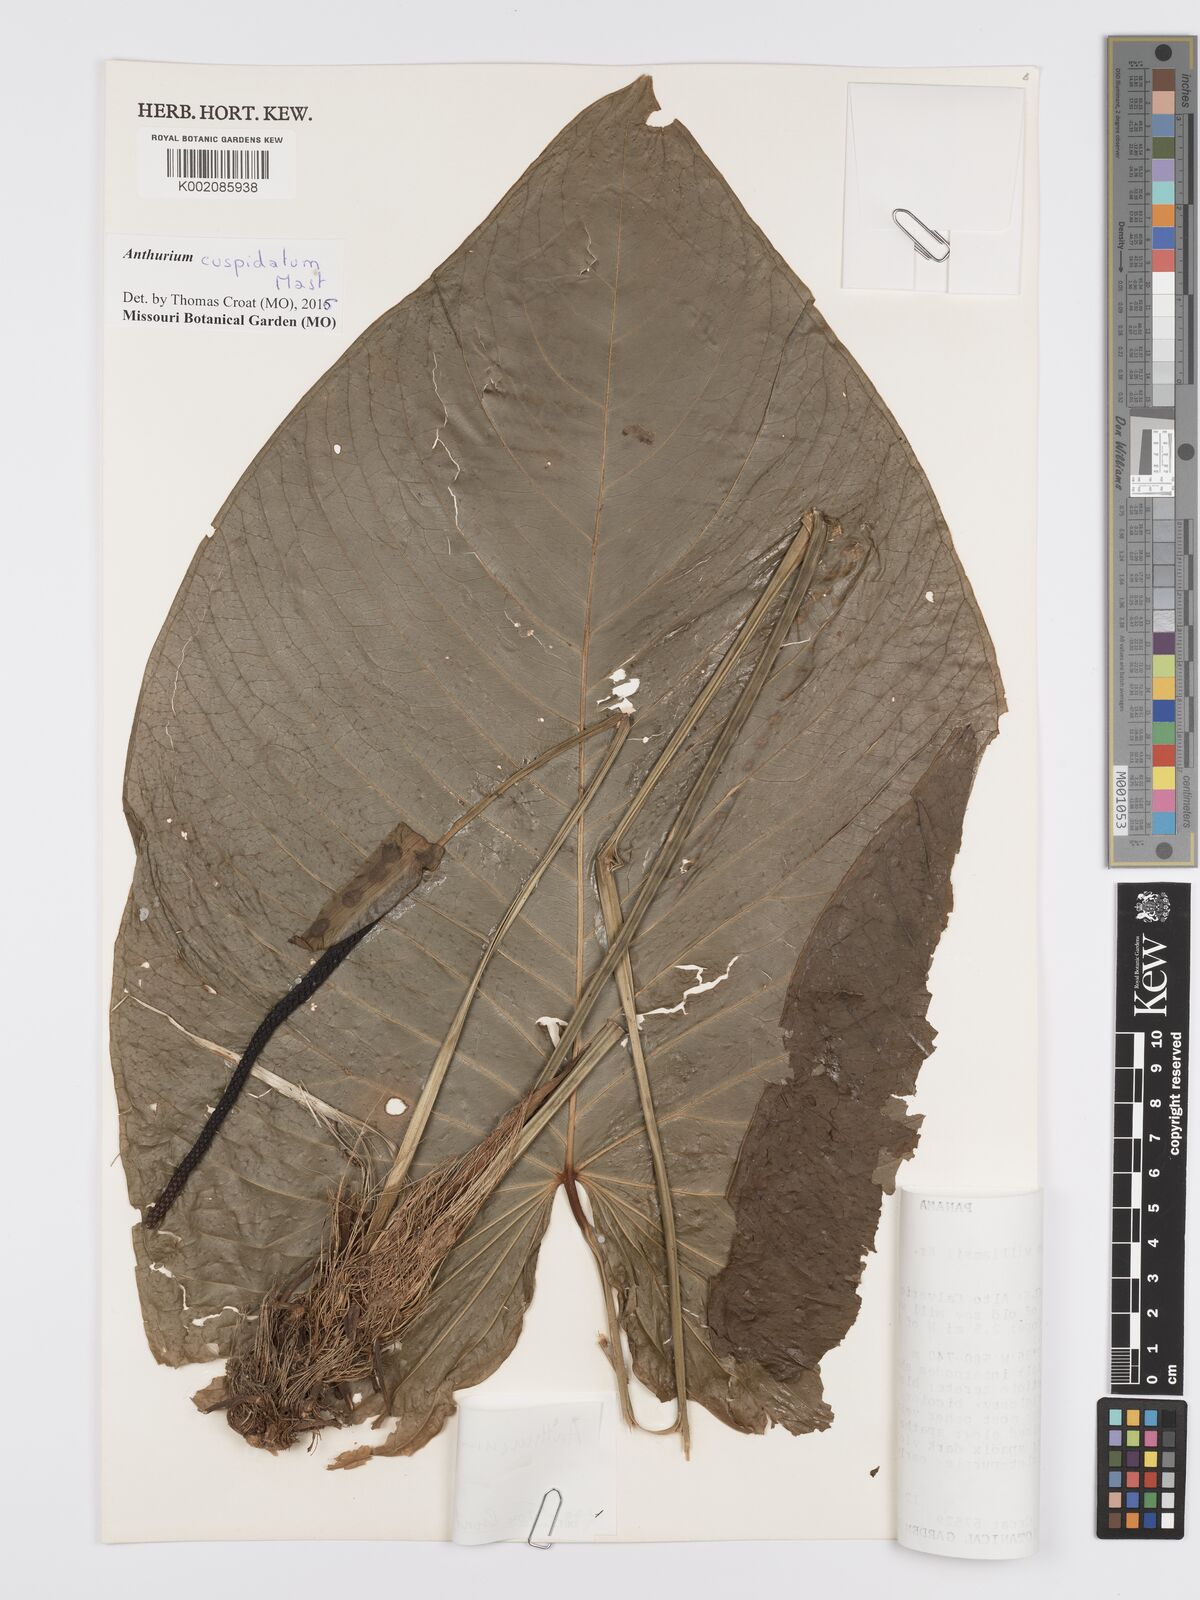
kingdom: Plantae
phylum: Tracheophyta
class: Liliopsida
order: Alismatales
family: Araceae
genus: Anthurium
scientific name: Anthurium cuspidatum
